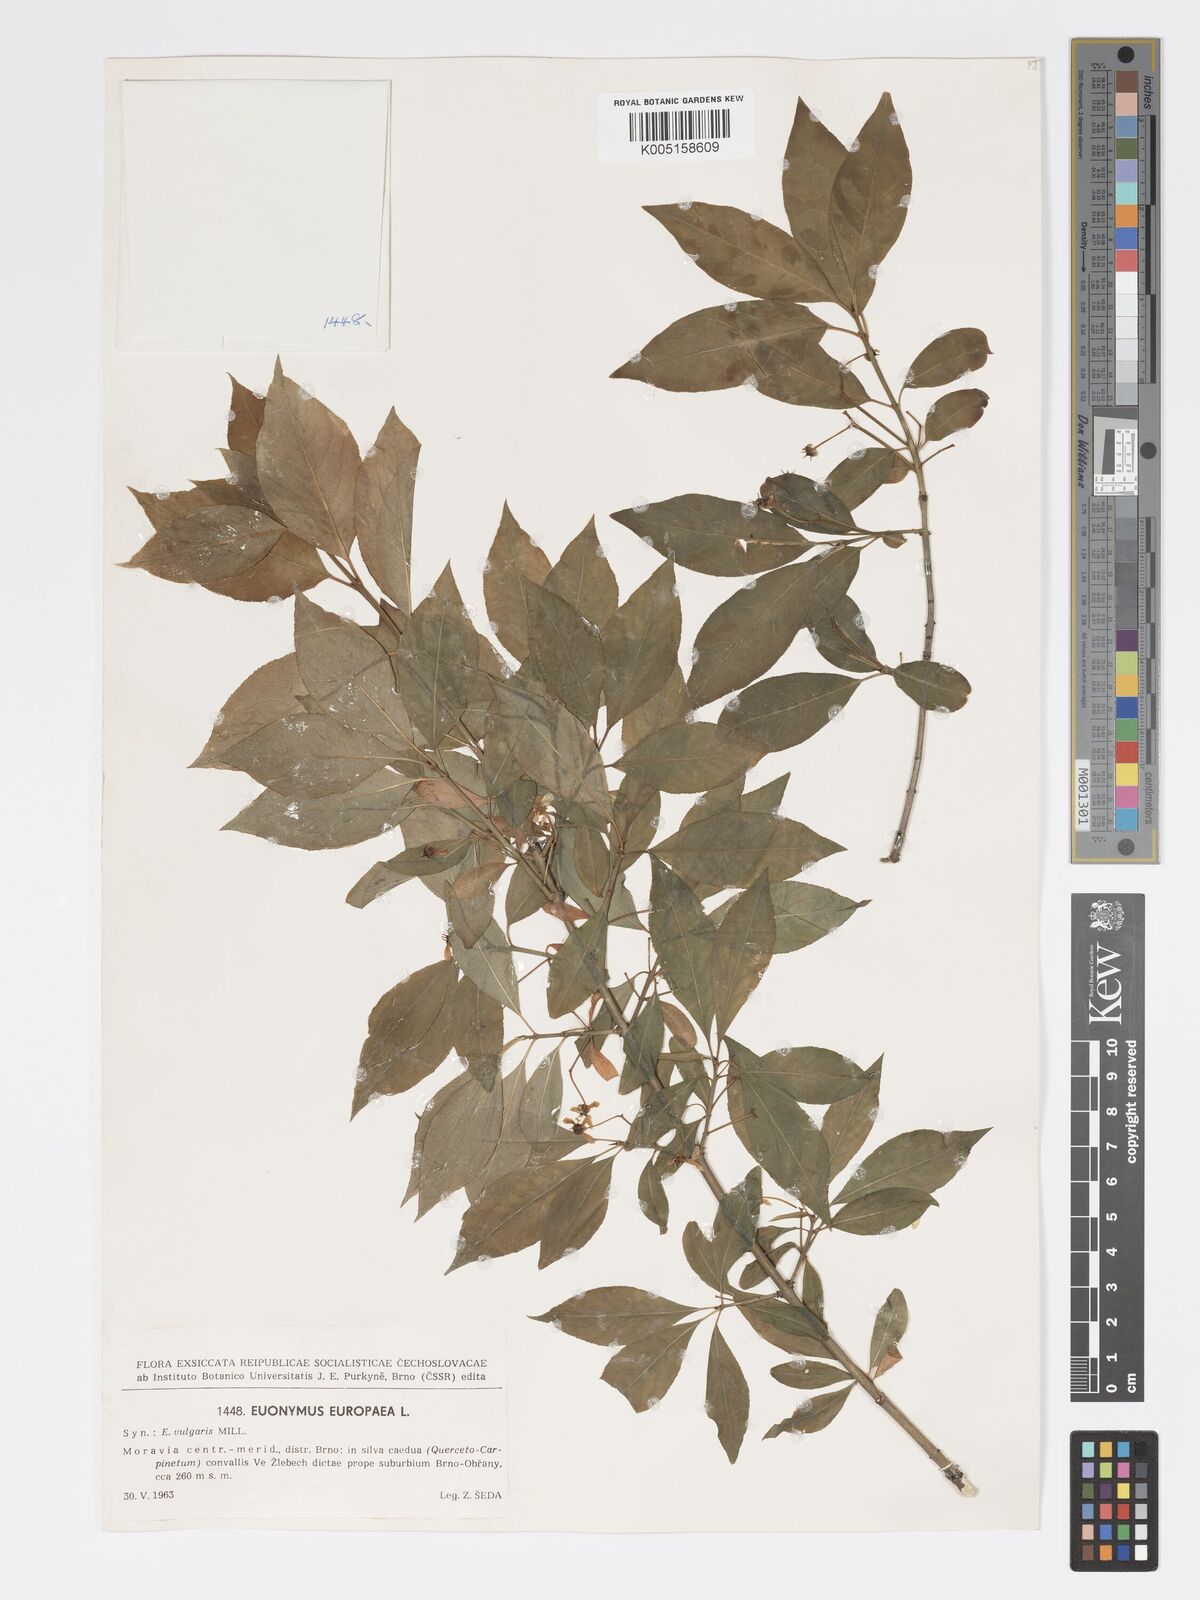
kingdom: Plantae
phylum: Tracheophyta
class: Magnoliopsida
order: Celastrales
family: Celastraceae
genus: Euonymus
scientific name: Euonymus europaeus
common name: Spindle
